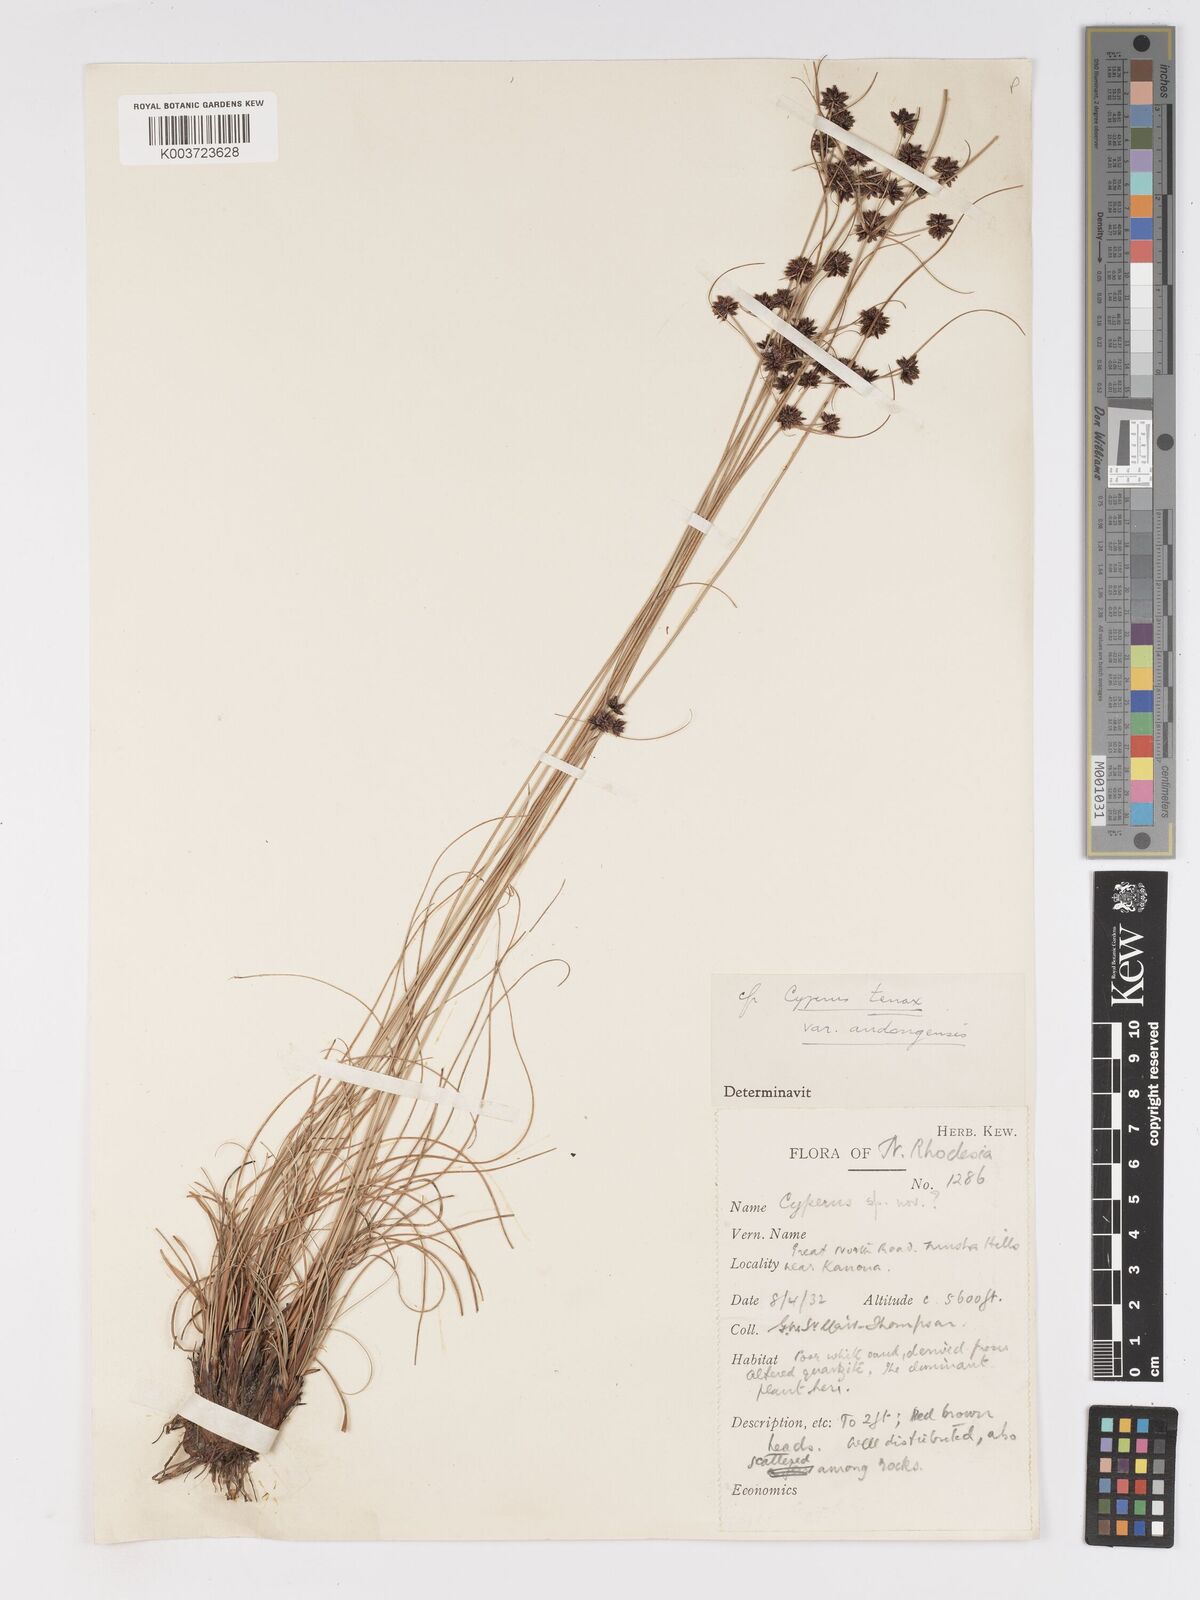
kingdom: Plantae
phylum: Tracheophyta
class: Liliopsida
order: Poales
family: Cyperaceae
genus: Cyperus
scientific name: Cyperus tenax
